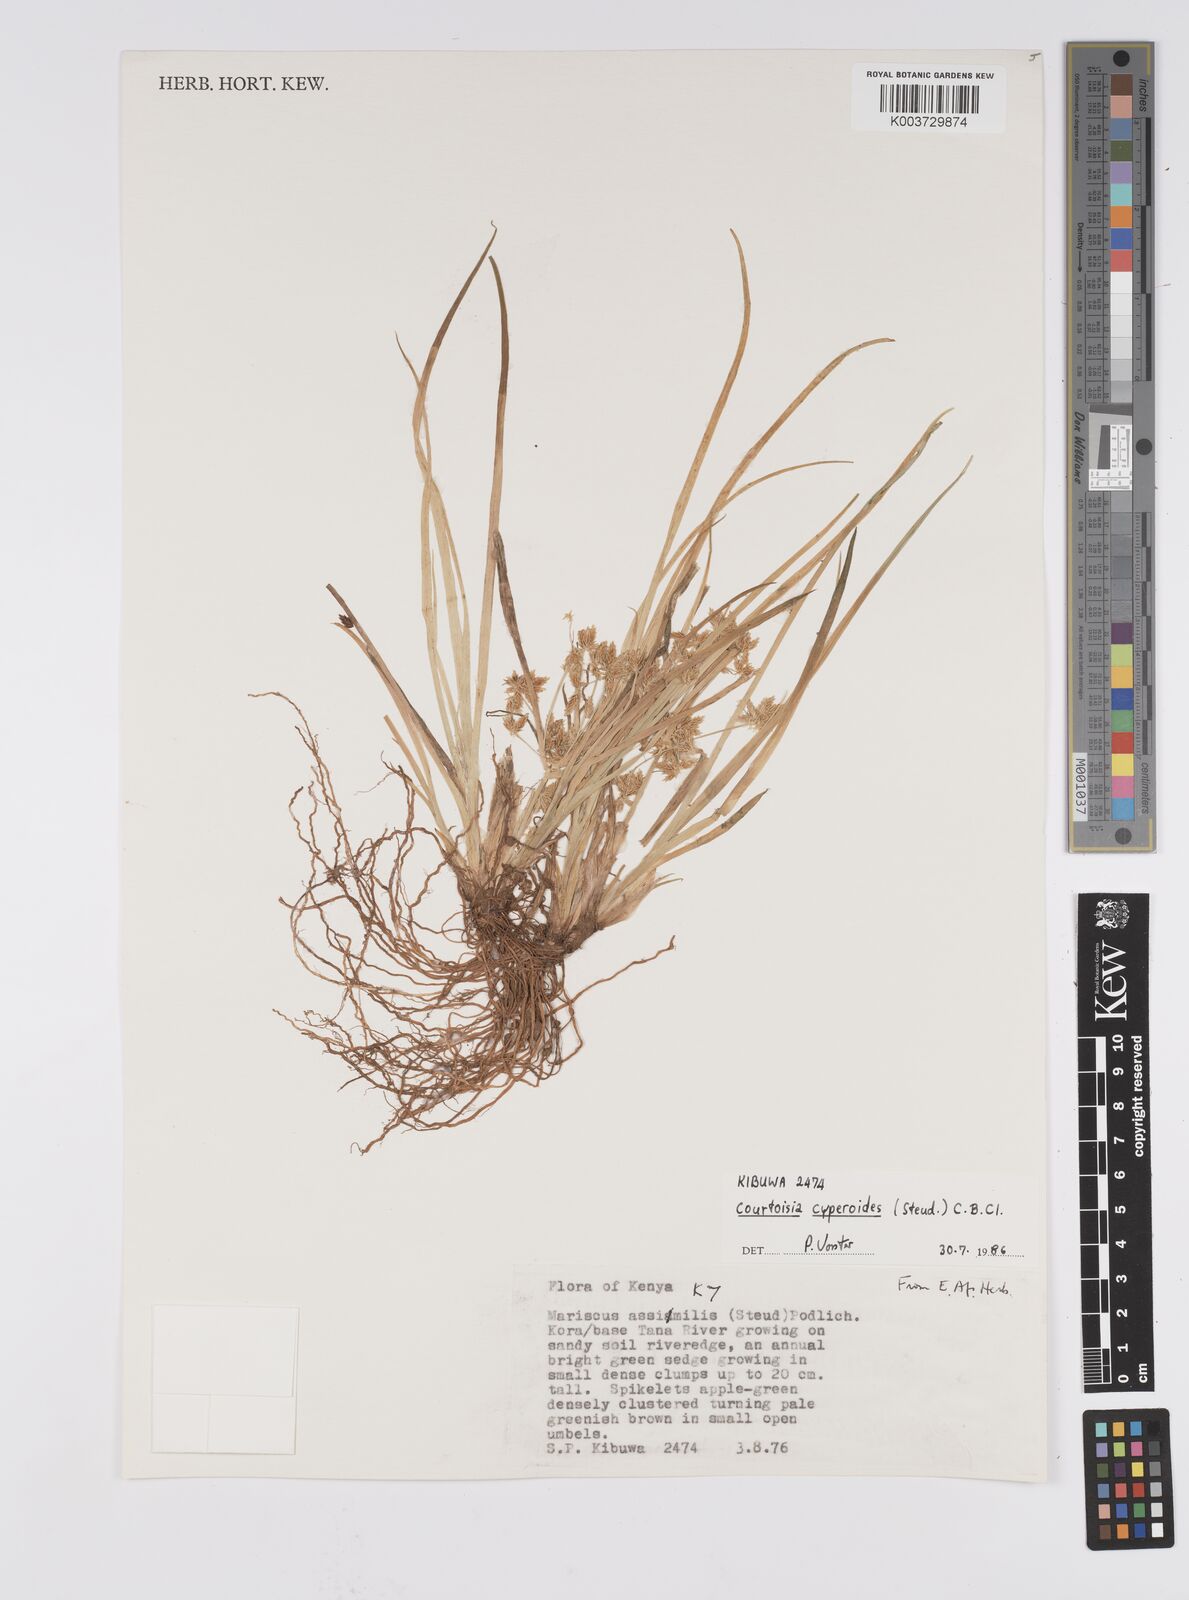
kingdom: Plantae
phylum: Tracheophyta
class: Liliopsida
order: Poales
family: Cyperaceae
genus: Cyperus
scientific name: Cyperus assimilis
